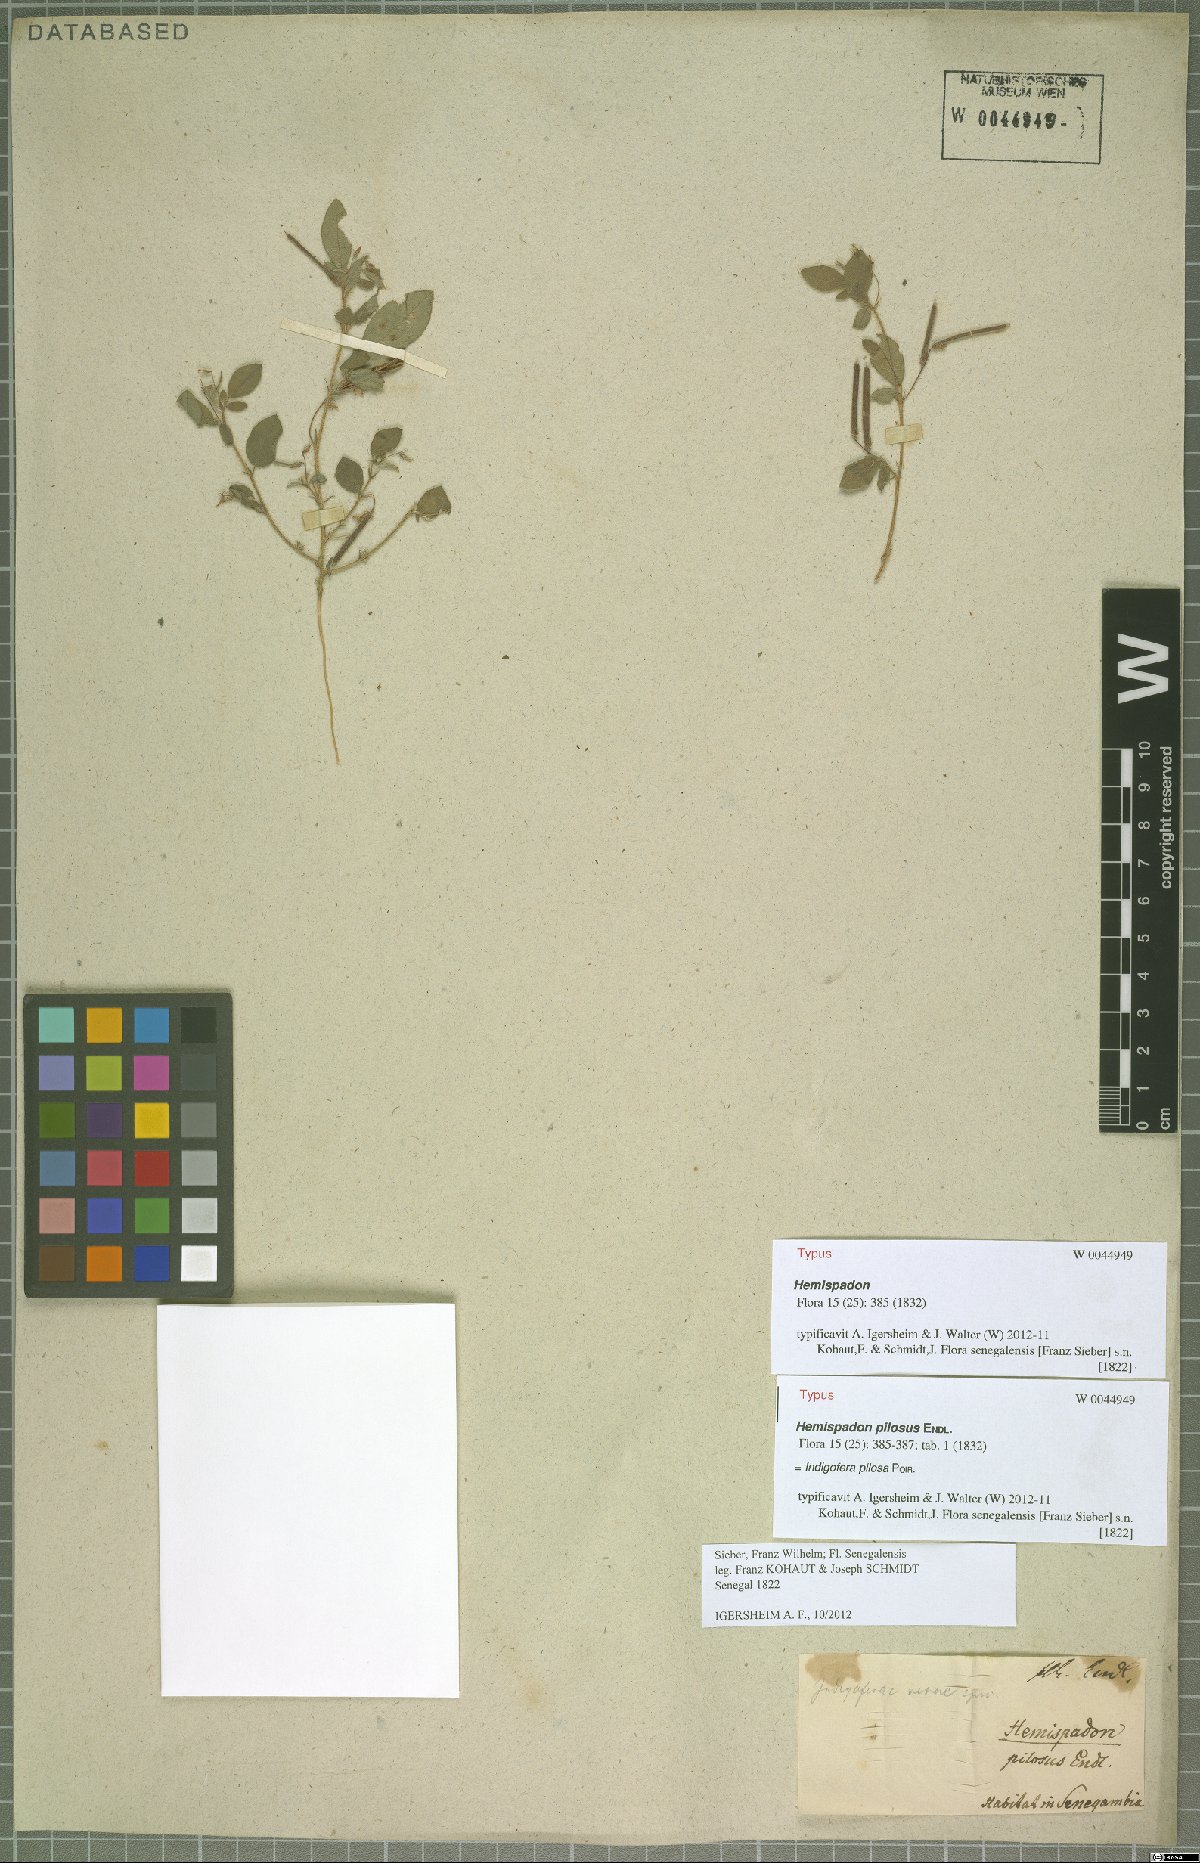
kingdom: Plantae
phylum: Tracheophyta
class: Magnoliopsida
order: Fabales
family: Fabaceae
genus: Indigofera
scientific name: Indigofera pilosa
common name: Softhairy indigo
